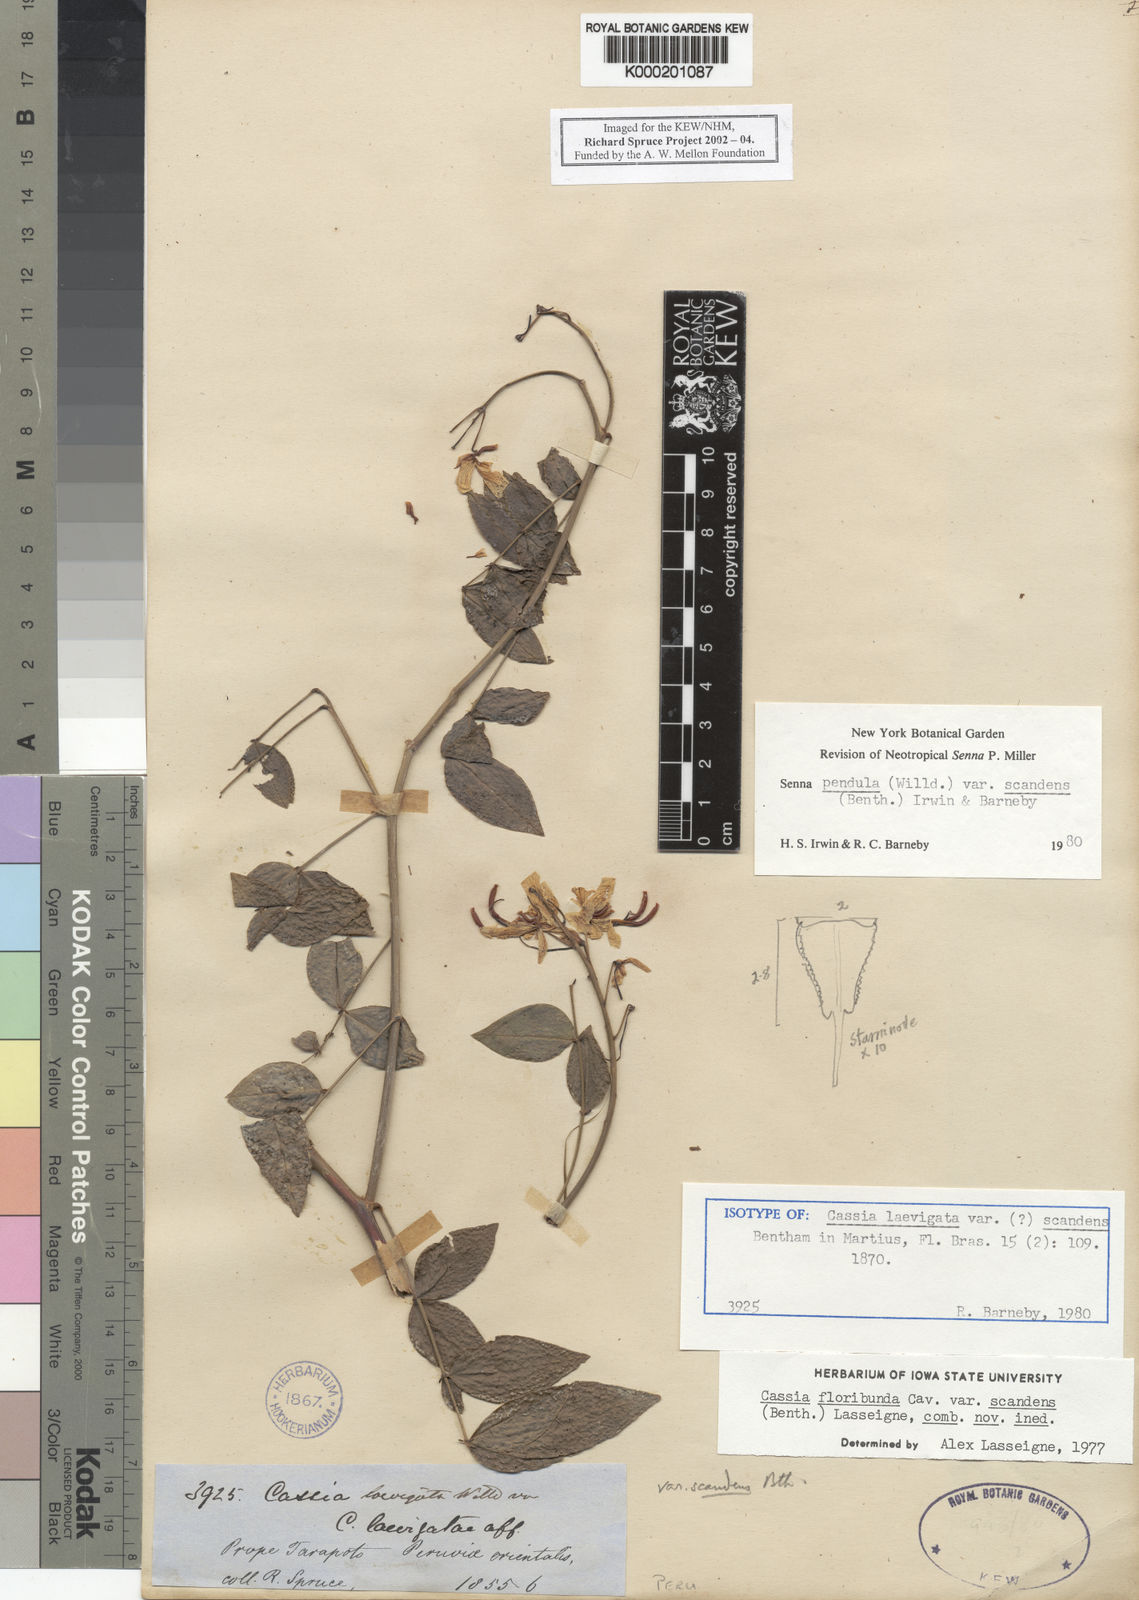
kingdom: Plantae
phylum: Tracheophyta
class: Magnoliopsida
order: Fabales
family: Fabaceae
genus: Senna
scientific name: Senna pendula
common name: Easter cassia
